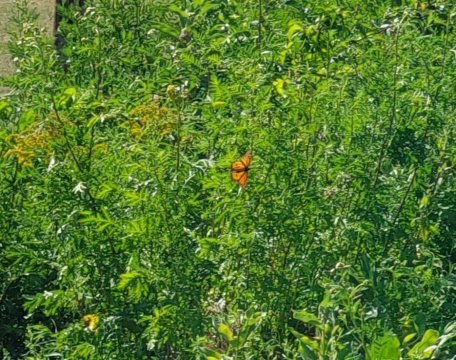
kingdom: Animalia
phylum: Arthropoda
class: Insecta
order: Lepidoptera
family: Nymphalidae
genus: Danaus
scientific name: Danaus plexippus
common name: Monarch
